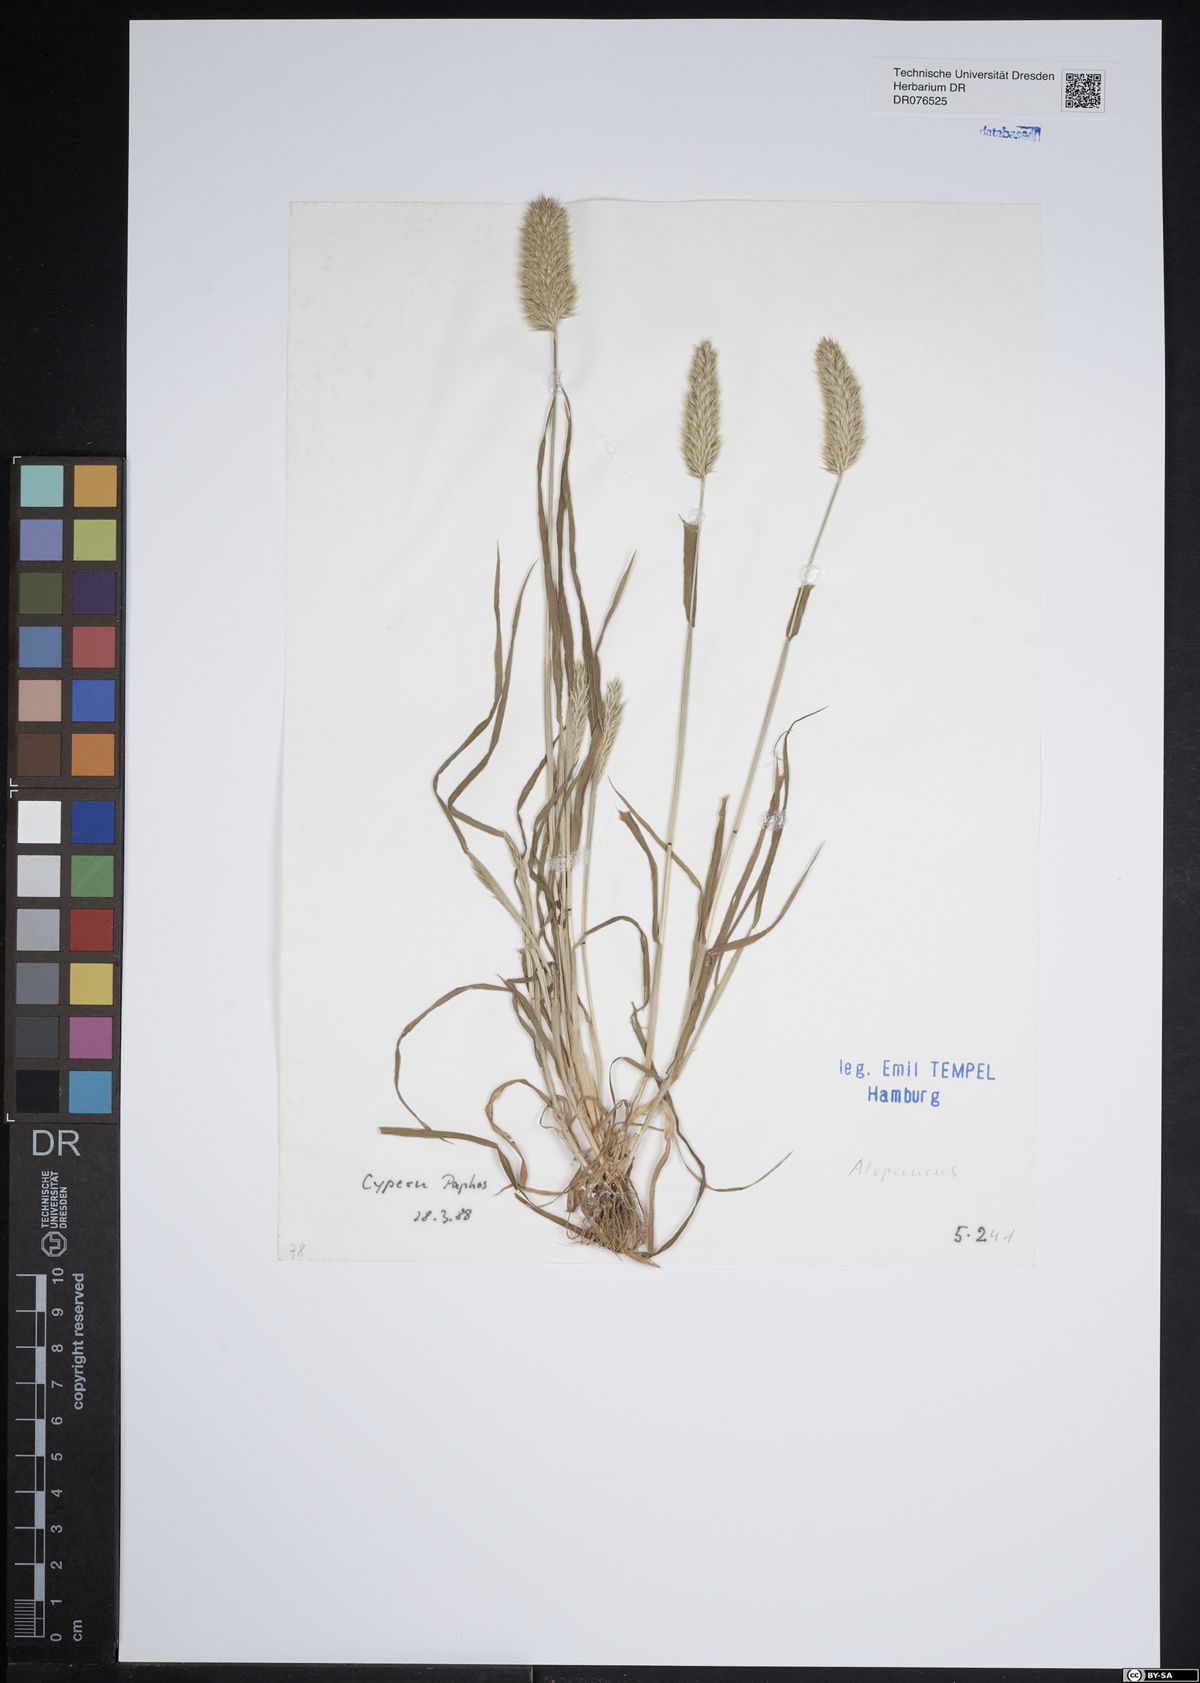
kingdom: Plantae
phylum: Tracheophyta
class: Liliopsida
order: Poales
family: Poaceae
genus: Alopecurus
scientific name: Alopecurus
